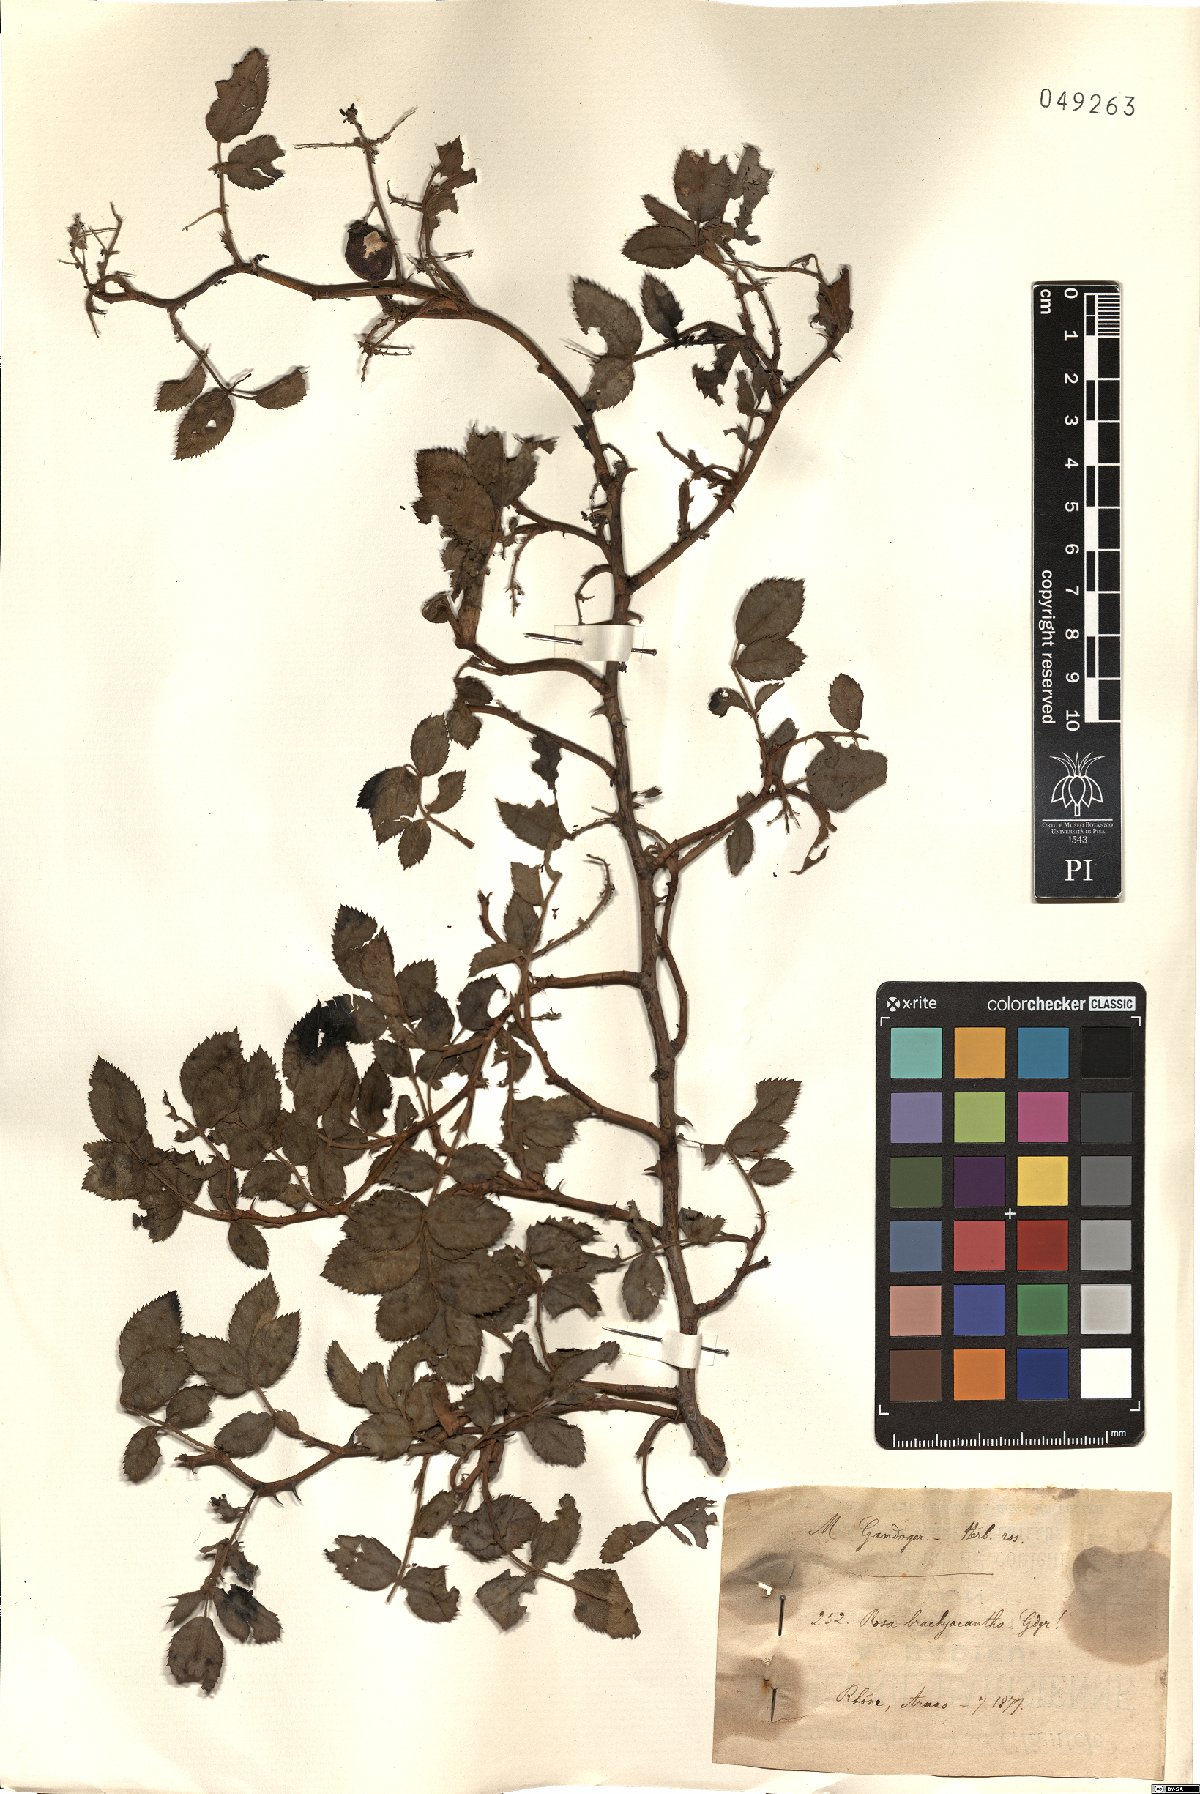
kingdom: Plantae
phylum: Tracheophyta
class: Magnoliopsida
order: Rosales
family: Rosaceae
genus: Rosa
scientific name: Rosa brachyacantha
